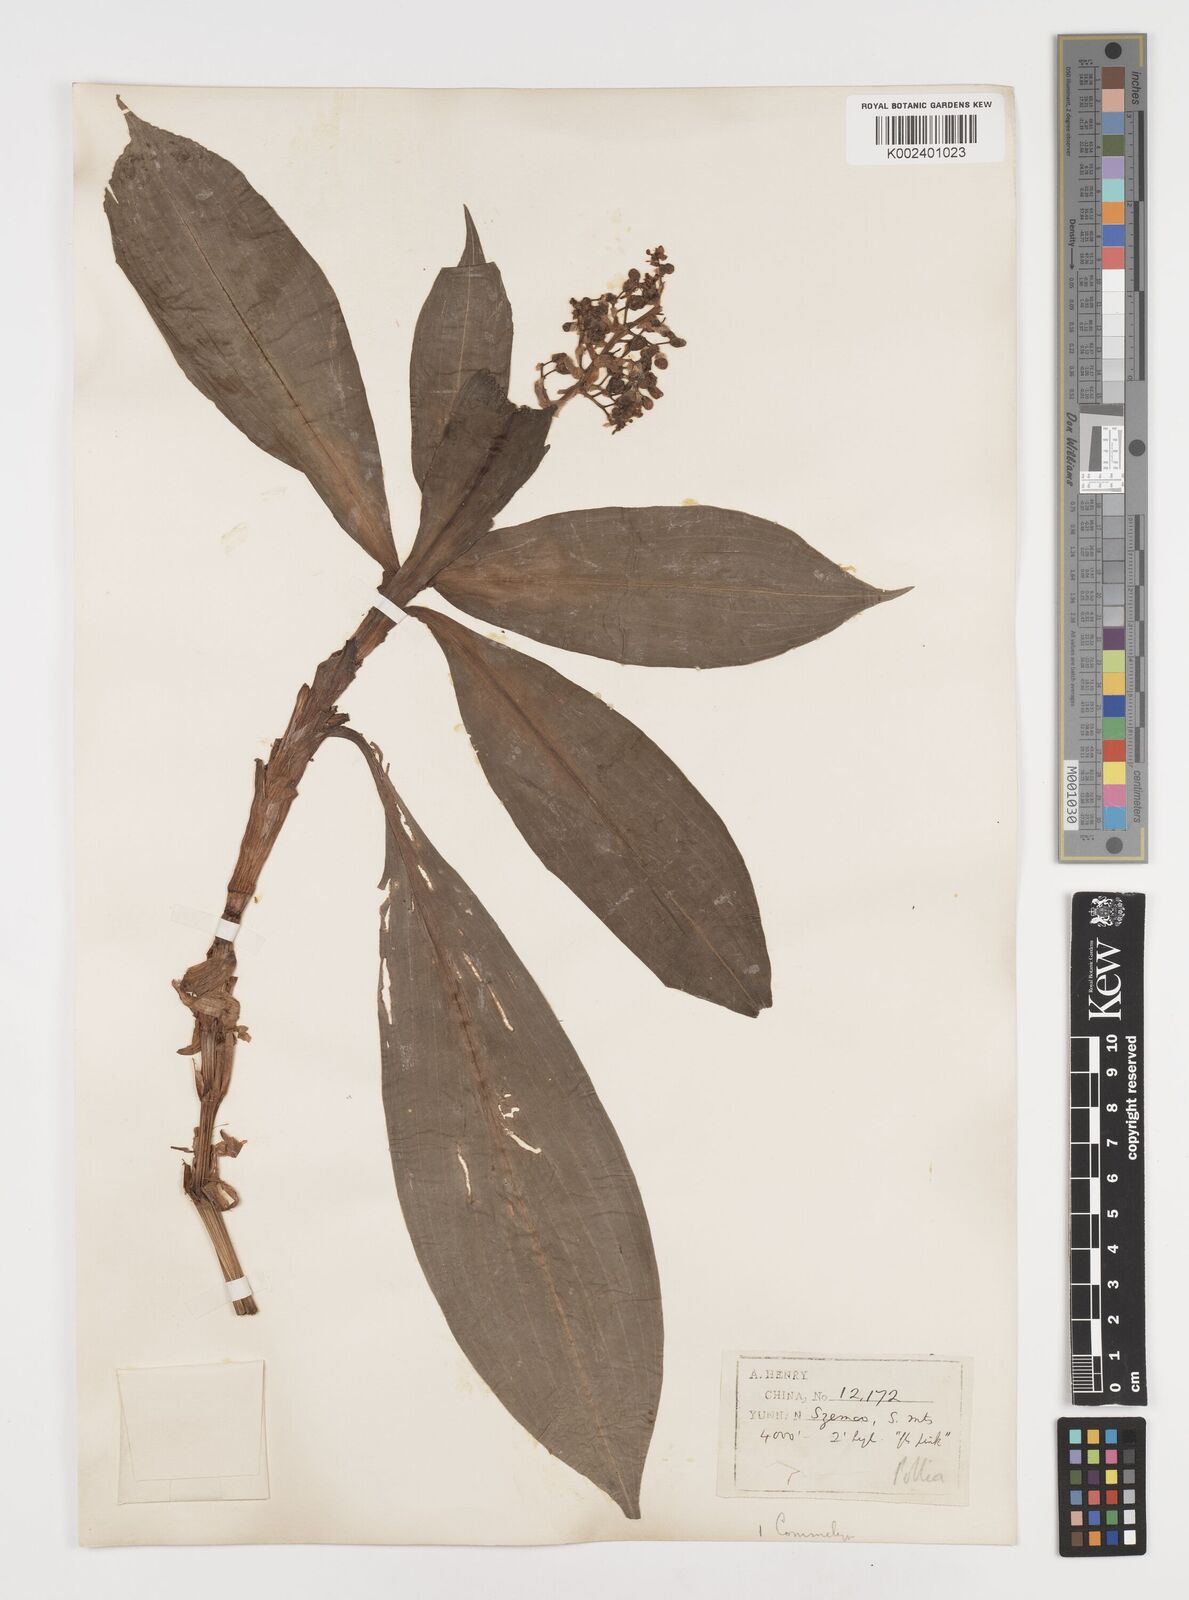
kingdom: Plantae
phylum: Tracheophyta
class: Liliopsida
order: Commelinales
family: Commelinaceae
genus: Pollia
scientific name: Pollia
